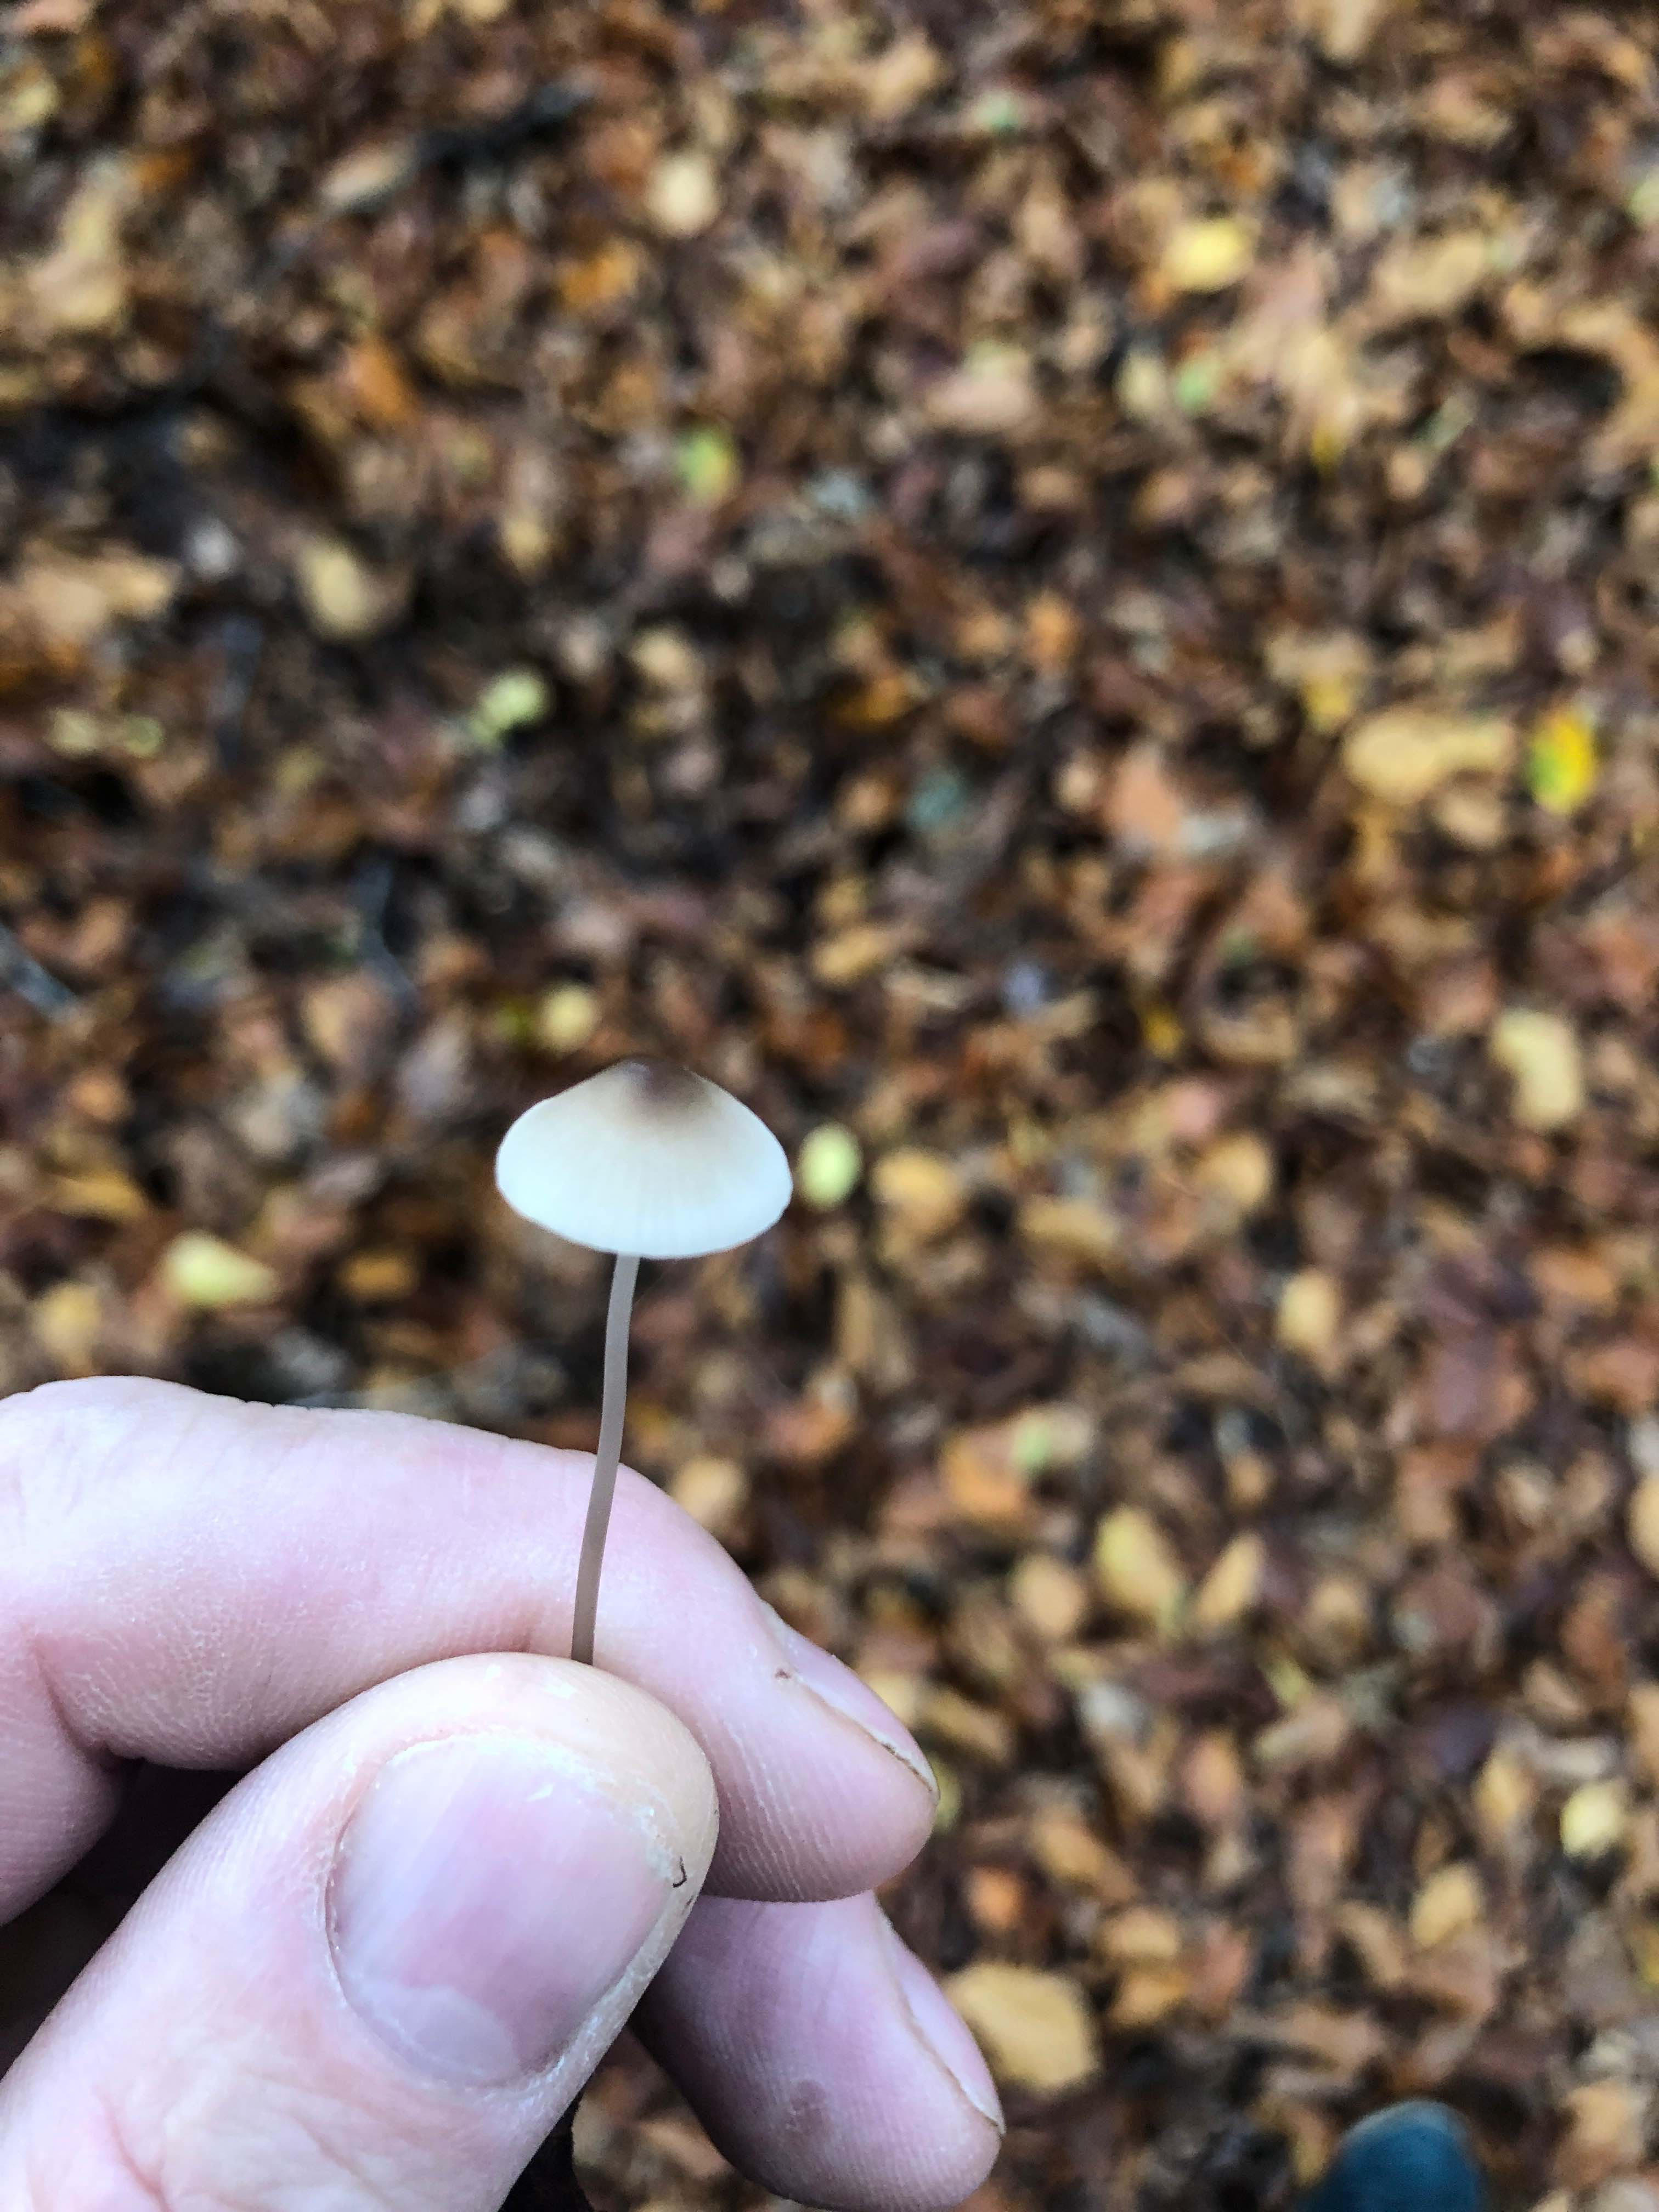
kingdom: Fungi
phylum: Basidiomycota
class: Agaricomycetes
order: Agaricales
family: Mycenaceae
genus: Mycena
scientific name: Mycena
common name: huesvamp
